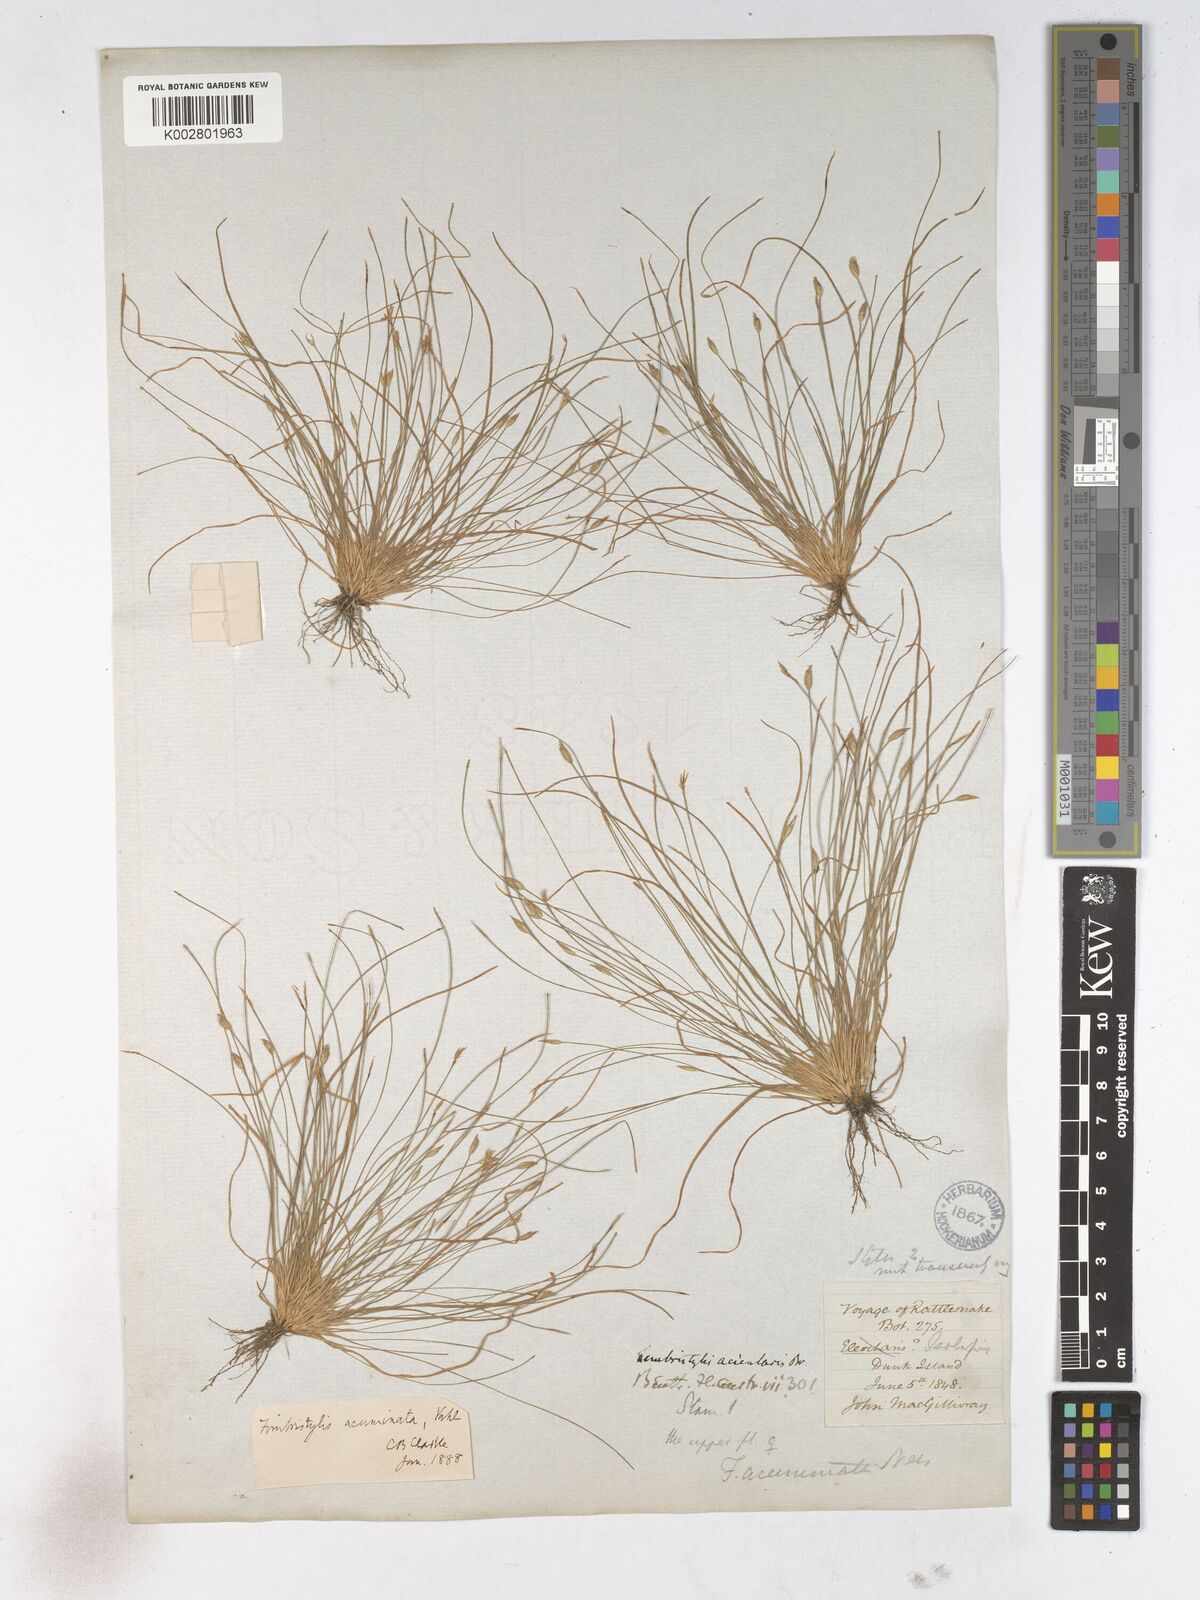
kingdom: Plantae
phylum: Tracheophyta
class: Liliopsida
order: Poales
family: Cyperaceae
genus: Fimbristylis
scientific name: Fimbristylis acicularis
